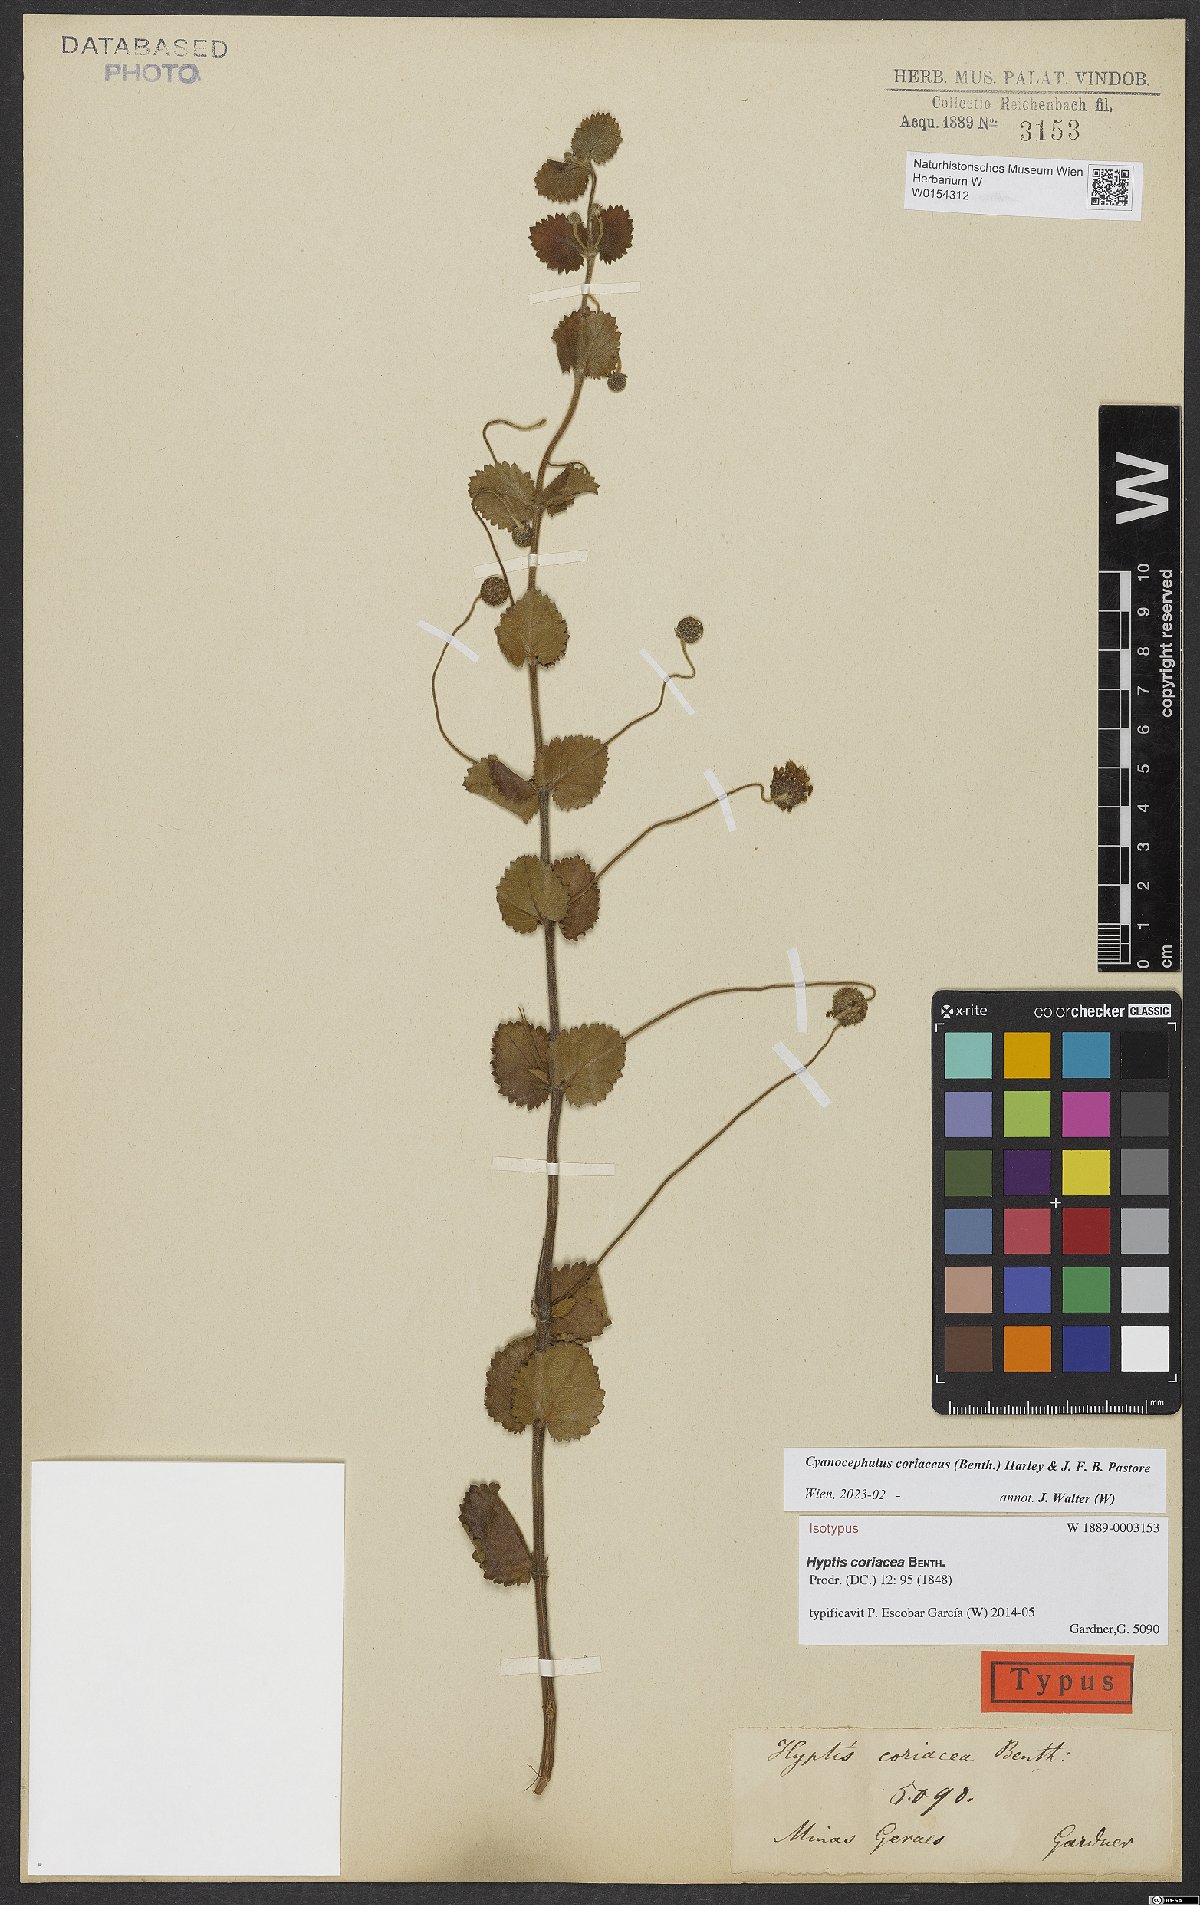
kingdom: Plantae
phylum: Tracheophyta
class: Magnoliopsida
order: Lamiales
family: Lamiaceae
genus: Cyanocephalus
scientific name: Cyanocephalus coriaceus
